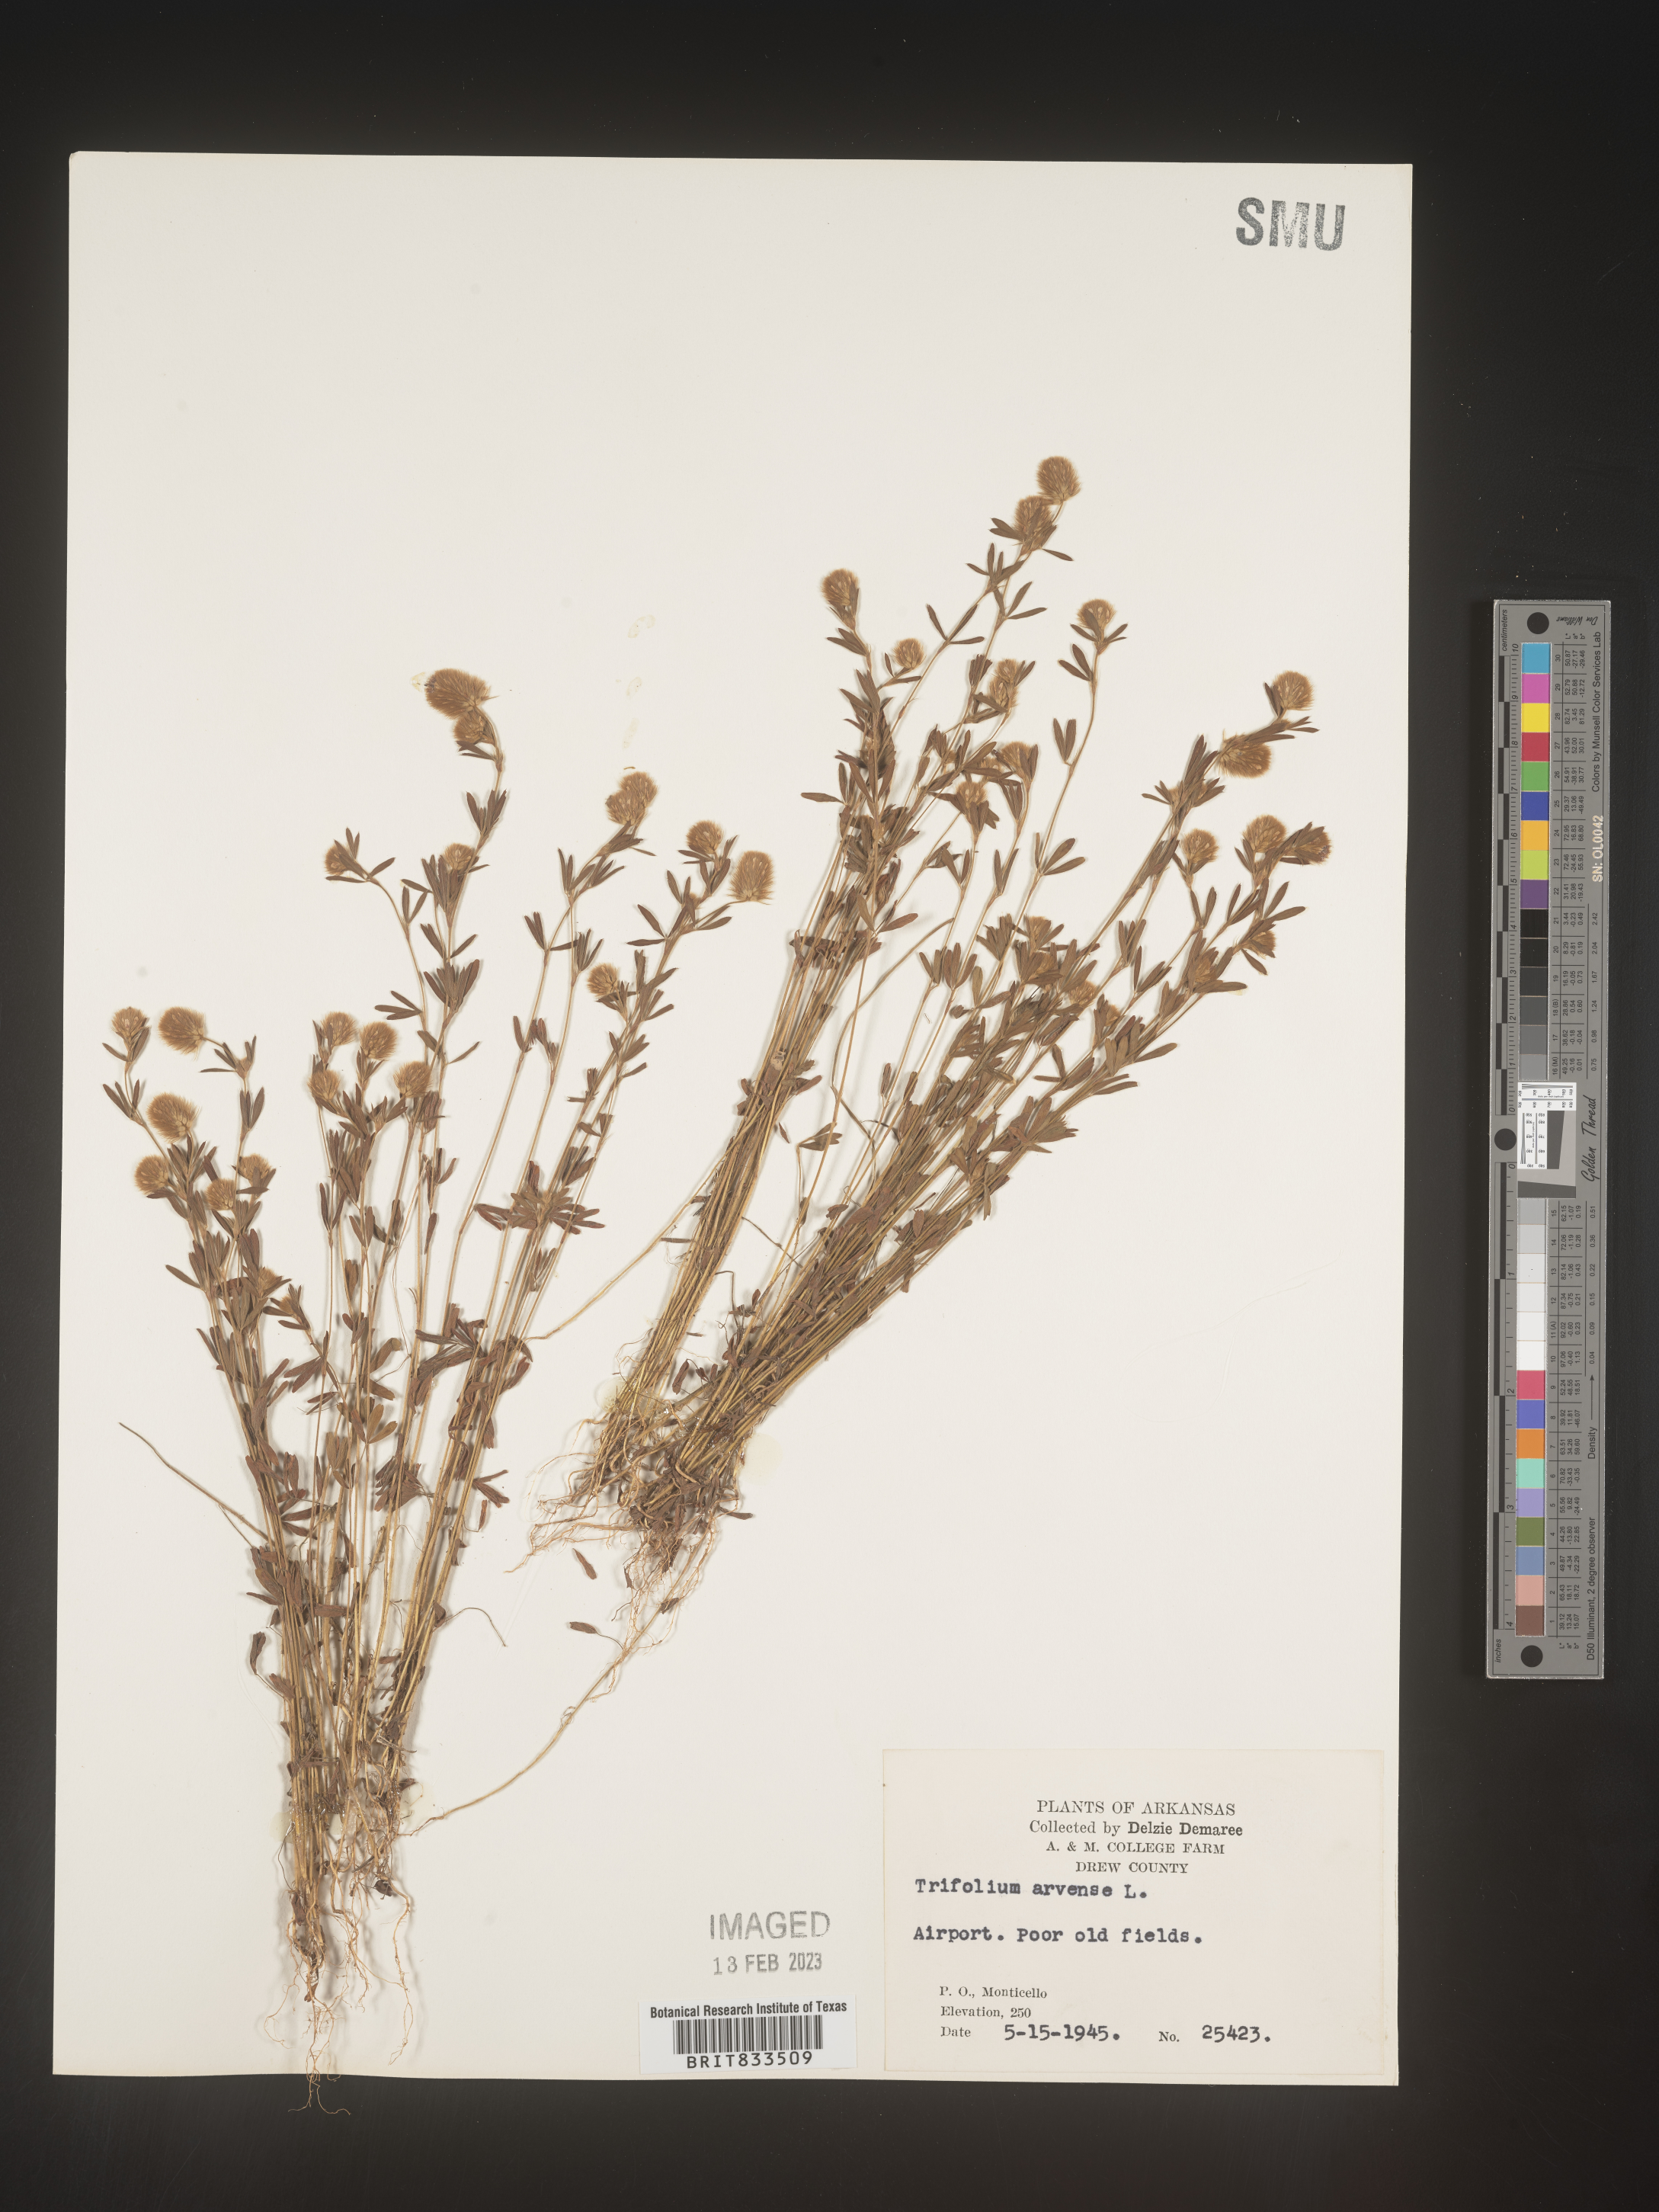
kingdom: Plantae
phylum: Tracheophyta
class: Magnoliopsida
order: Fabales
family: Fabaceae
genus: Trifolium
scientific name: Trifolium arvense
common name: Hare's-foot clover
